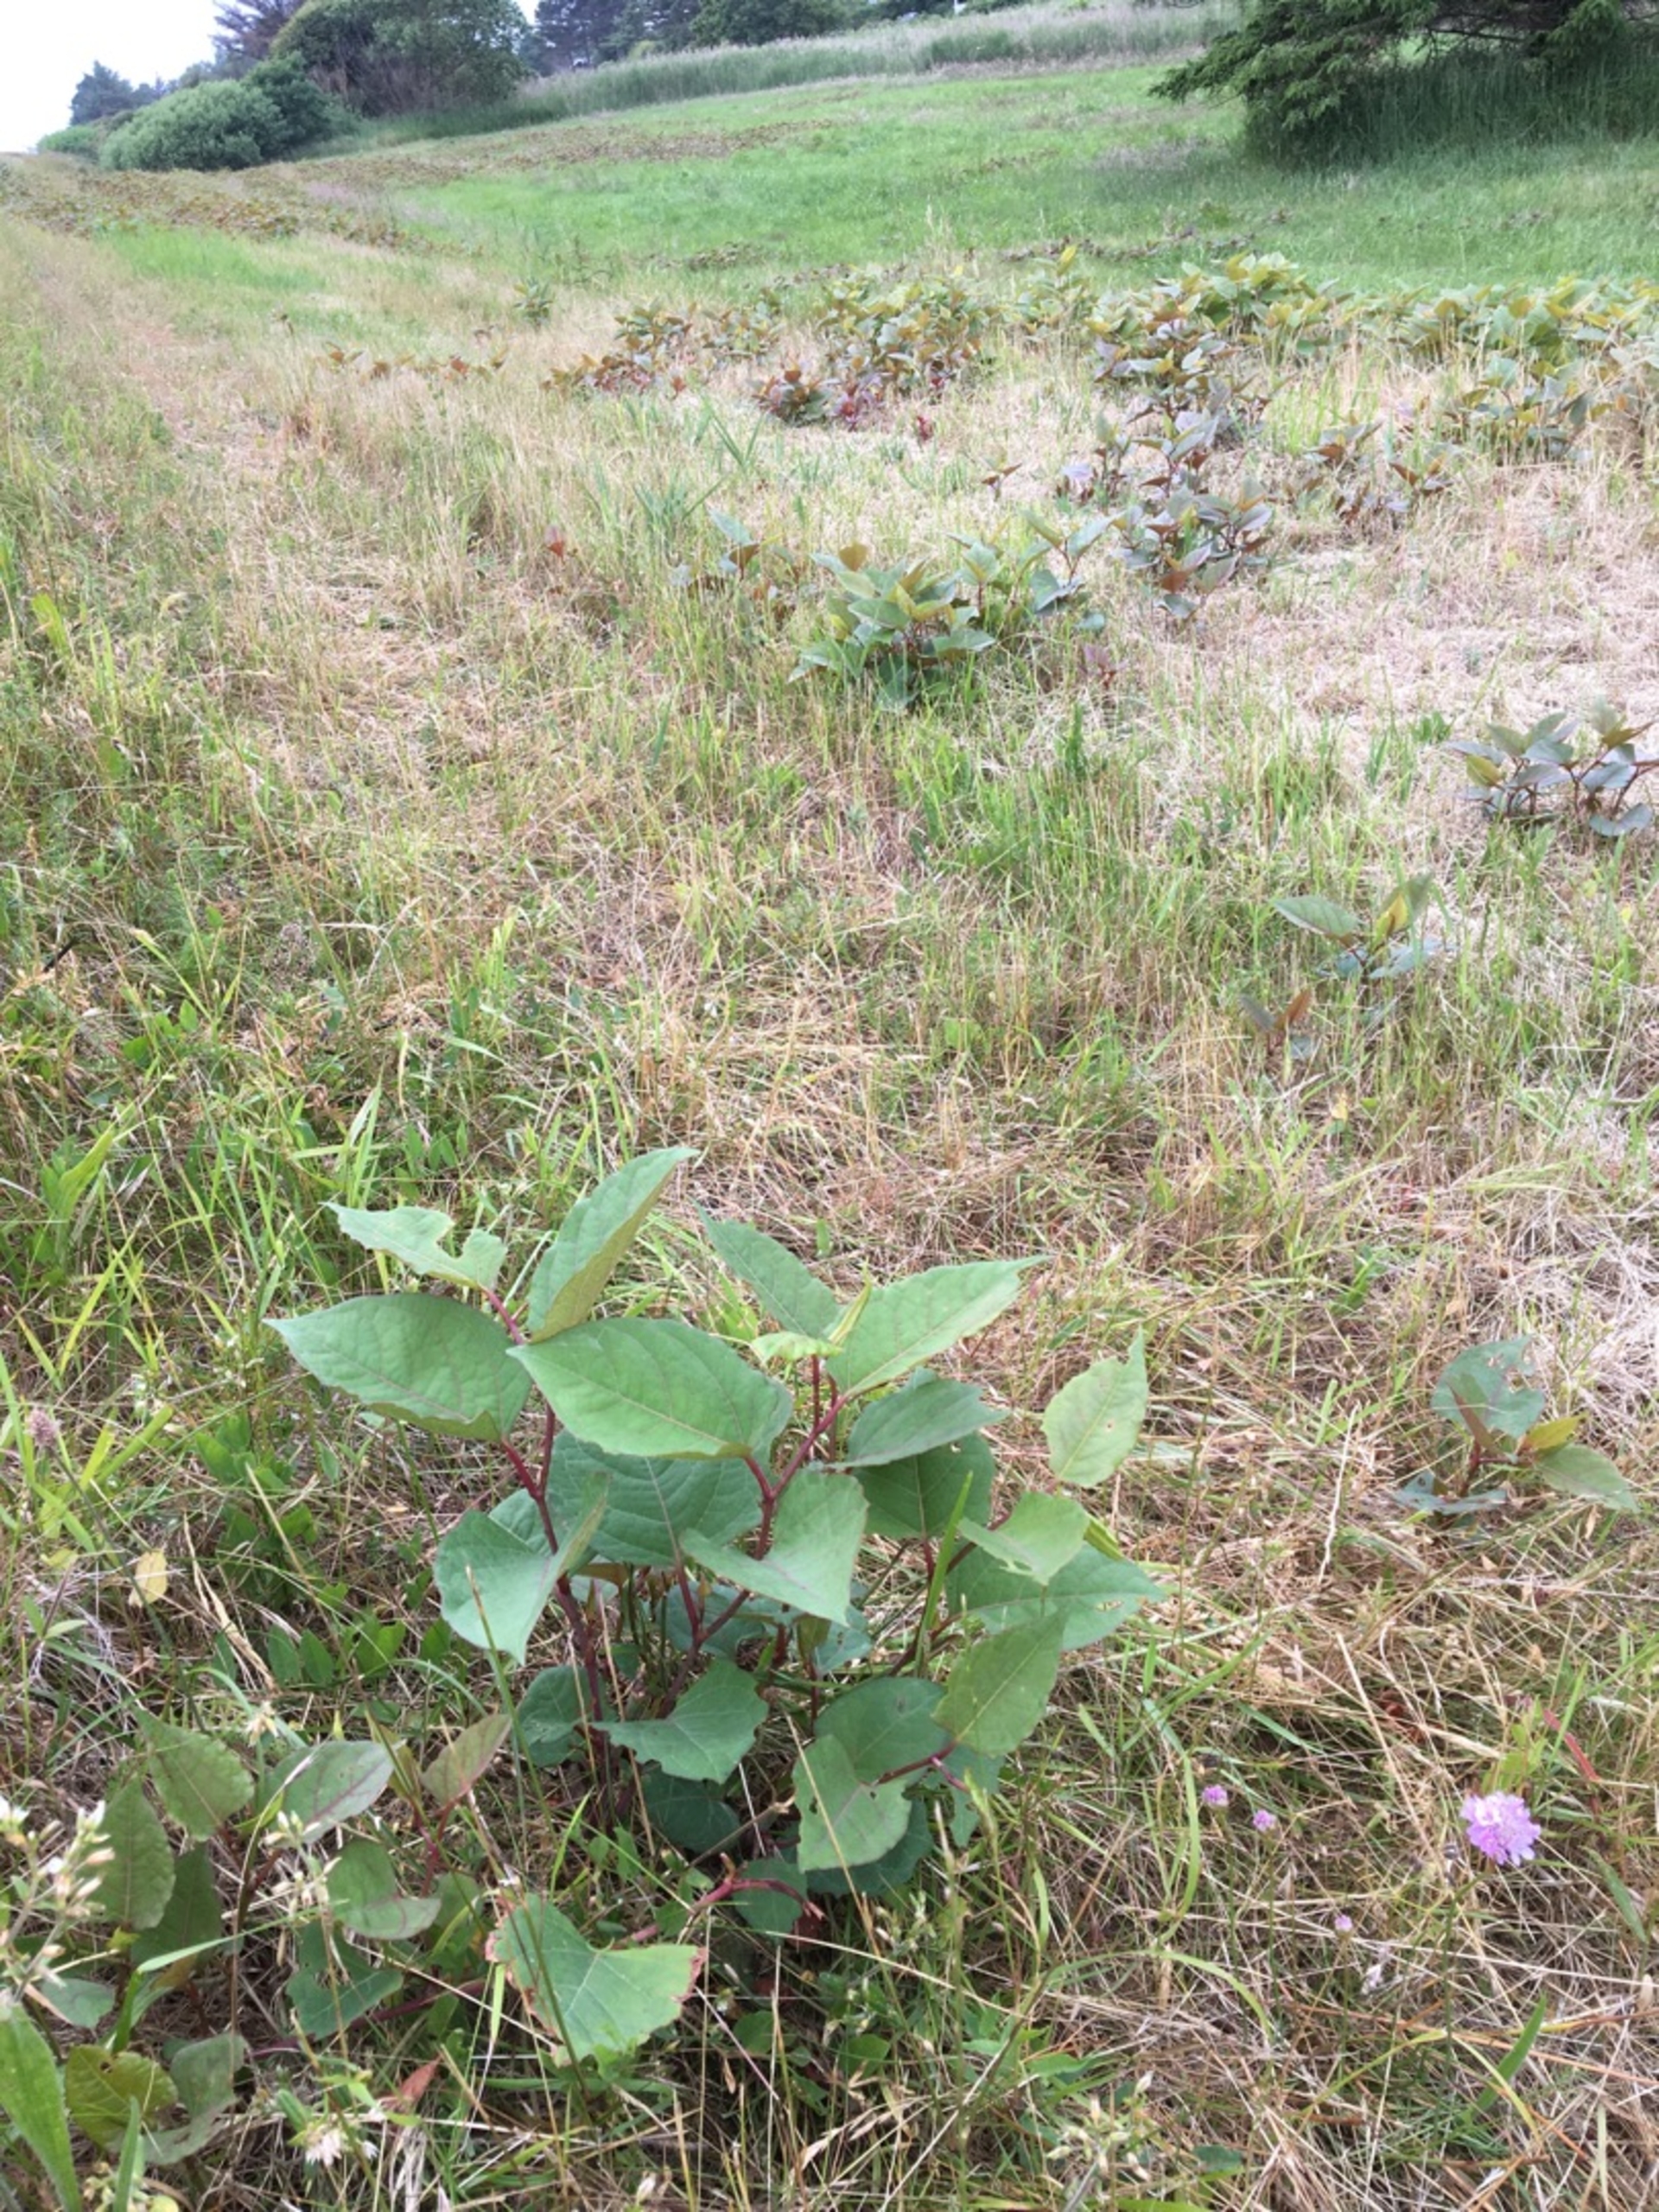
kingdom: Plantae
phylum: Tracheophyta
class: Magnoliopsida
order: Caryophyllales
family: Polygonaceae
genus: Reynoutria
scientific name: Reynoutria japonica
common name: Japan-pileurt
